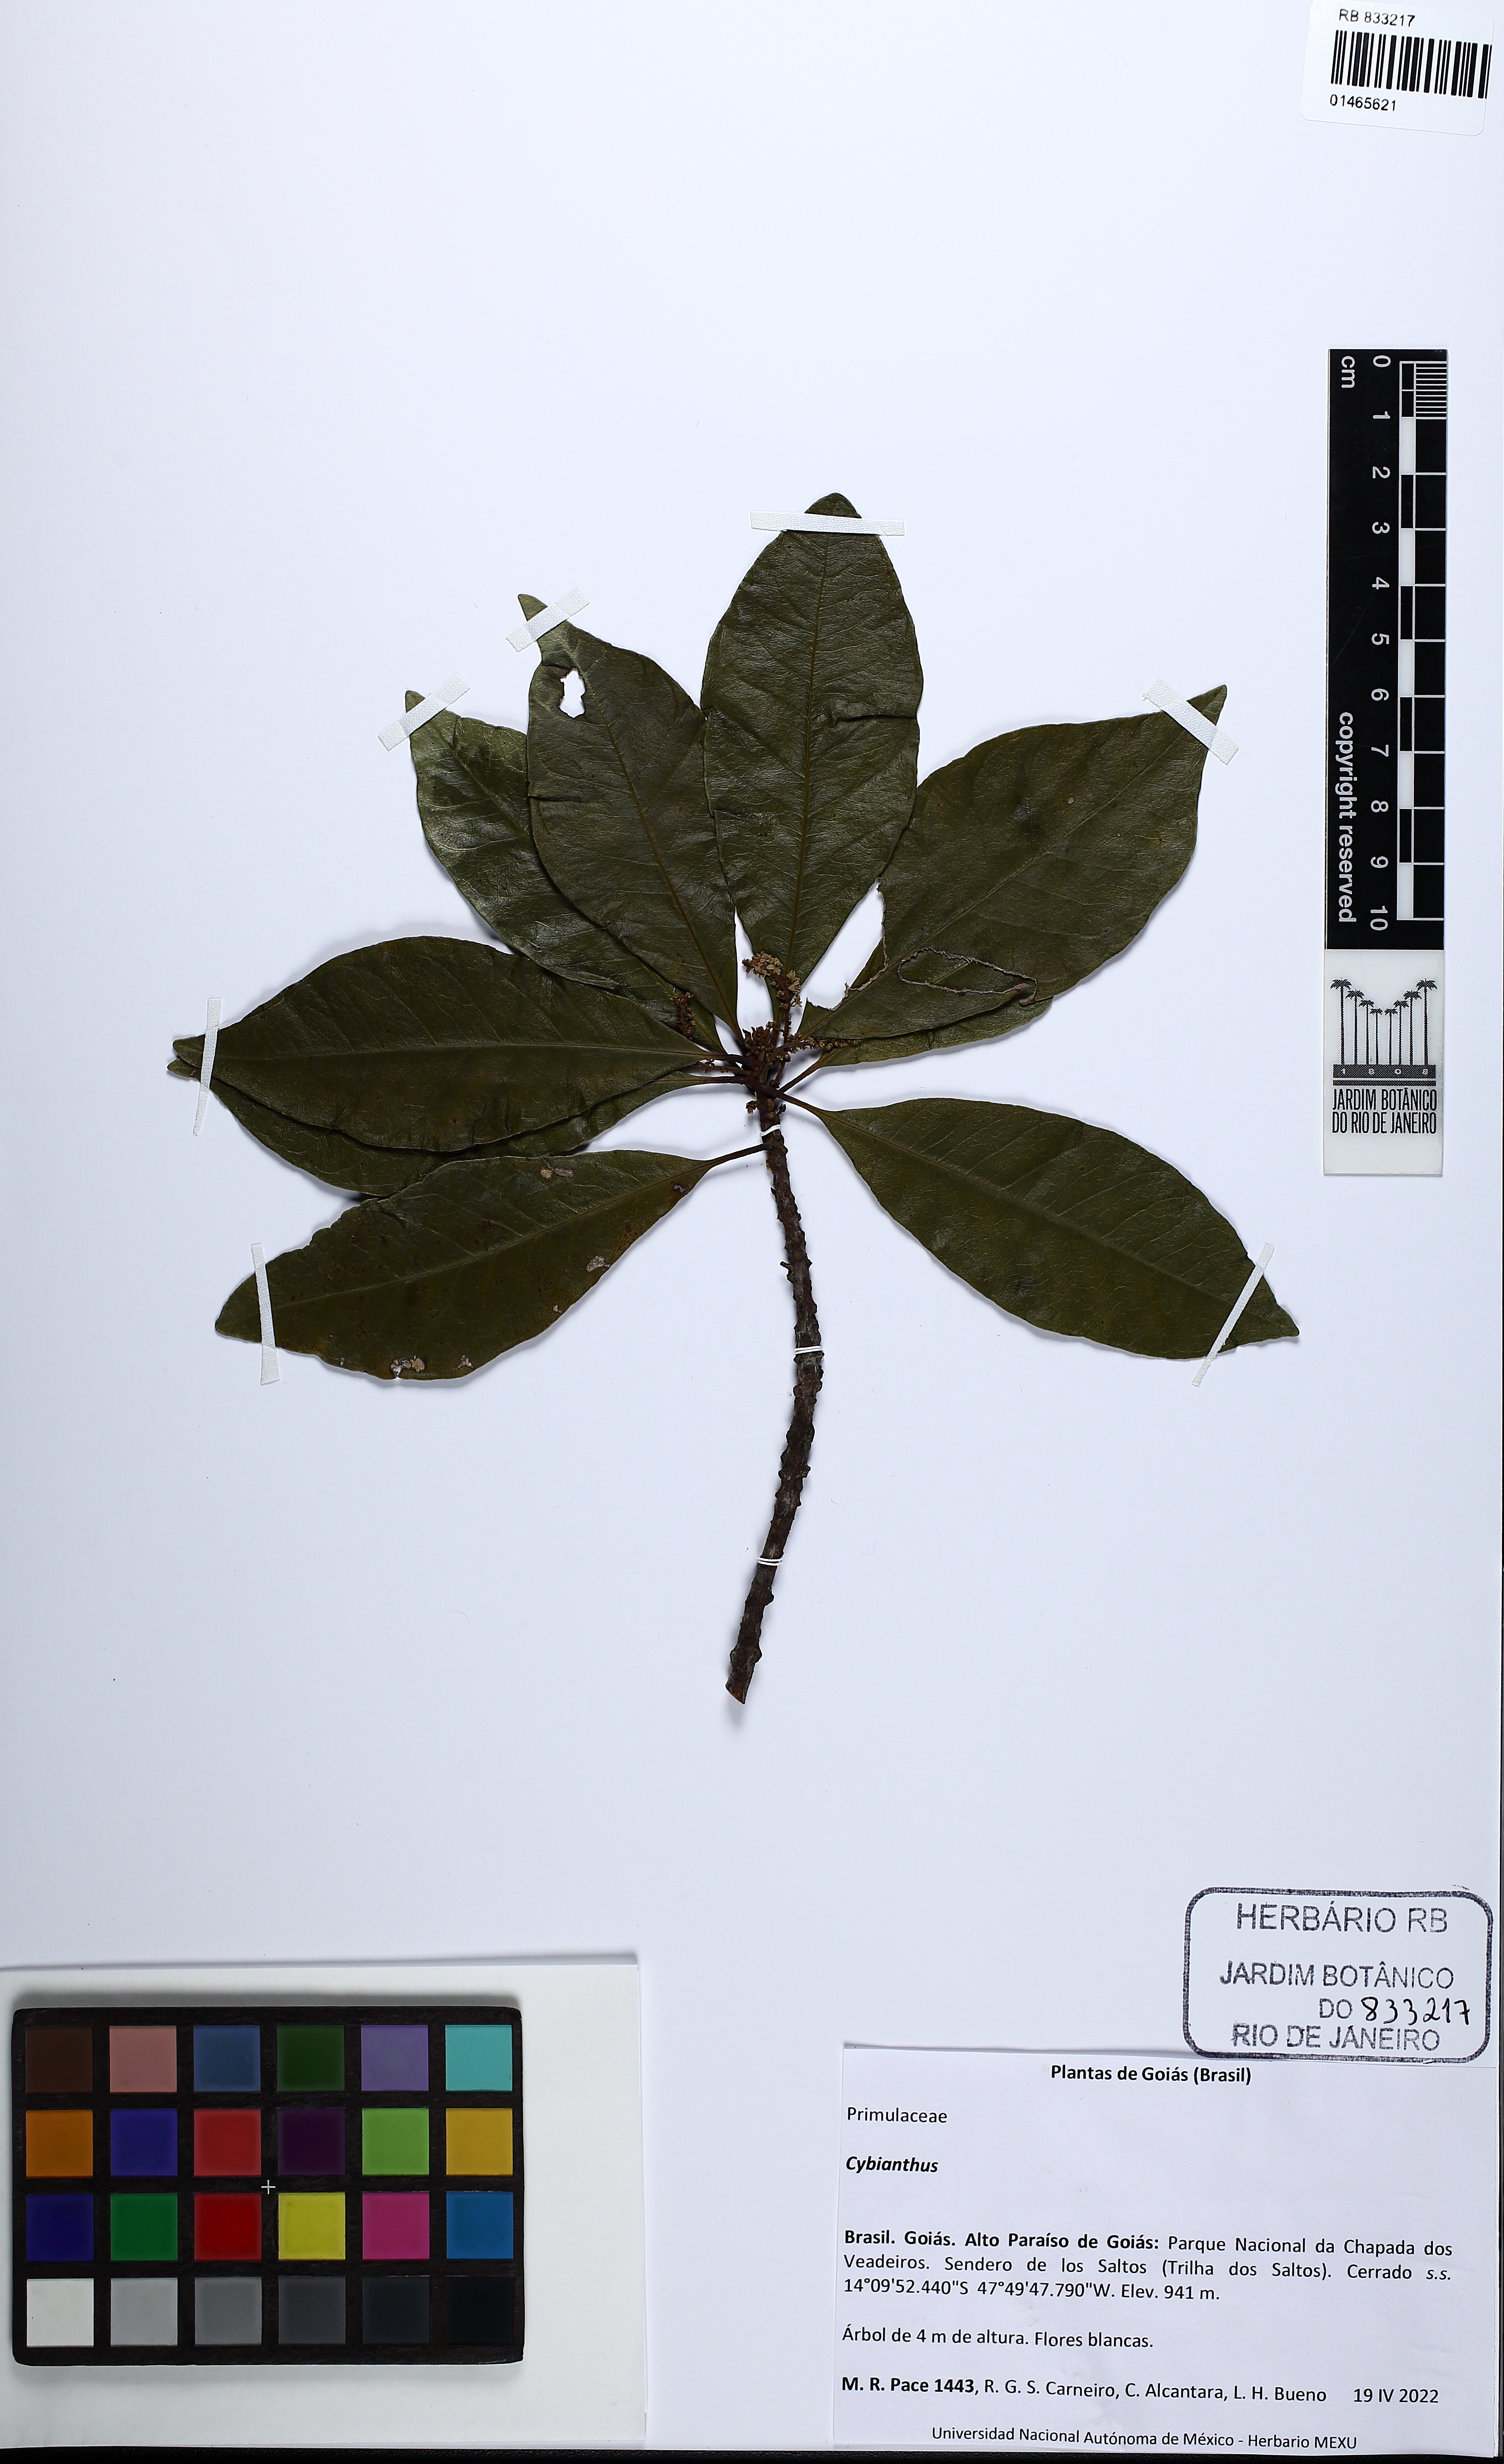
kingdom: Plantae
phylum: Tracheophyta
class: Magnoliopsida
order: Ericales
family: Primulaceae
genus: Cybianthus
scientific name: Cybianthus
